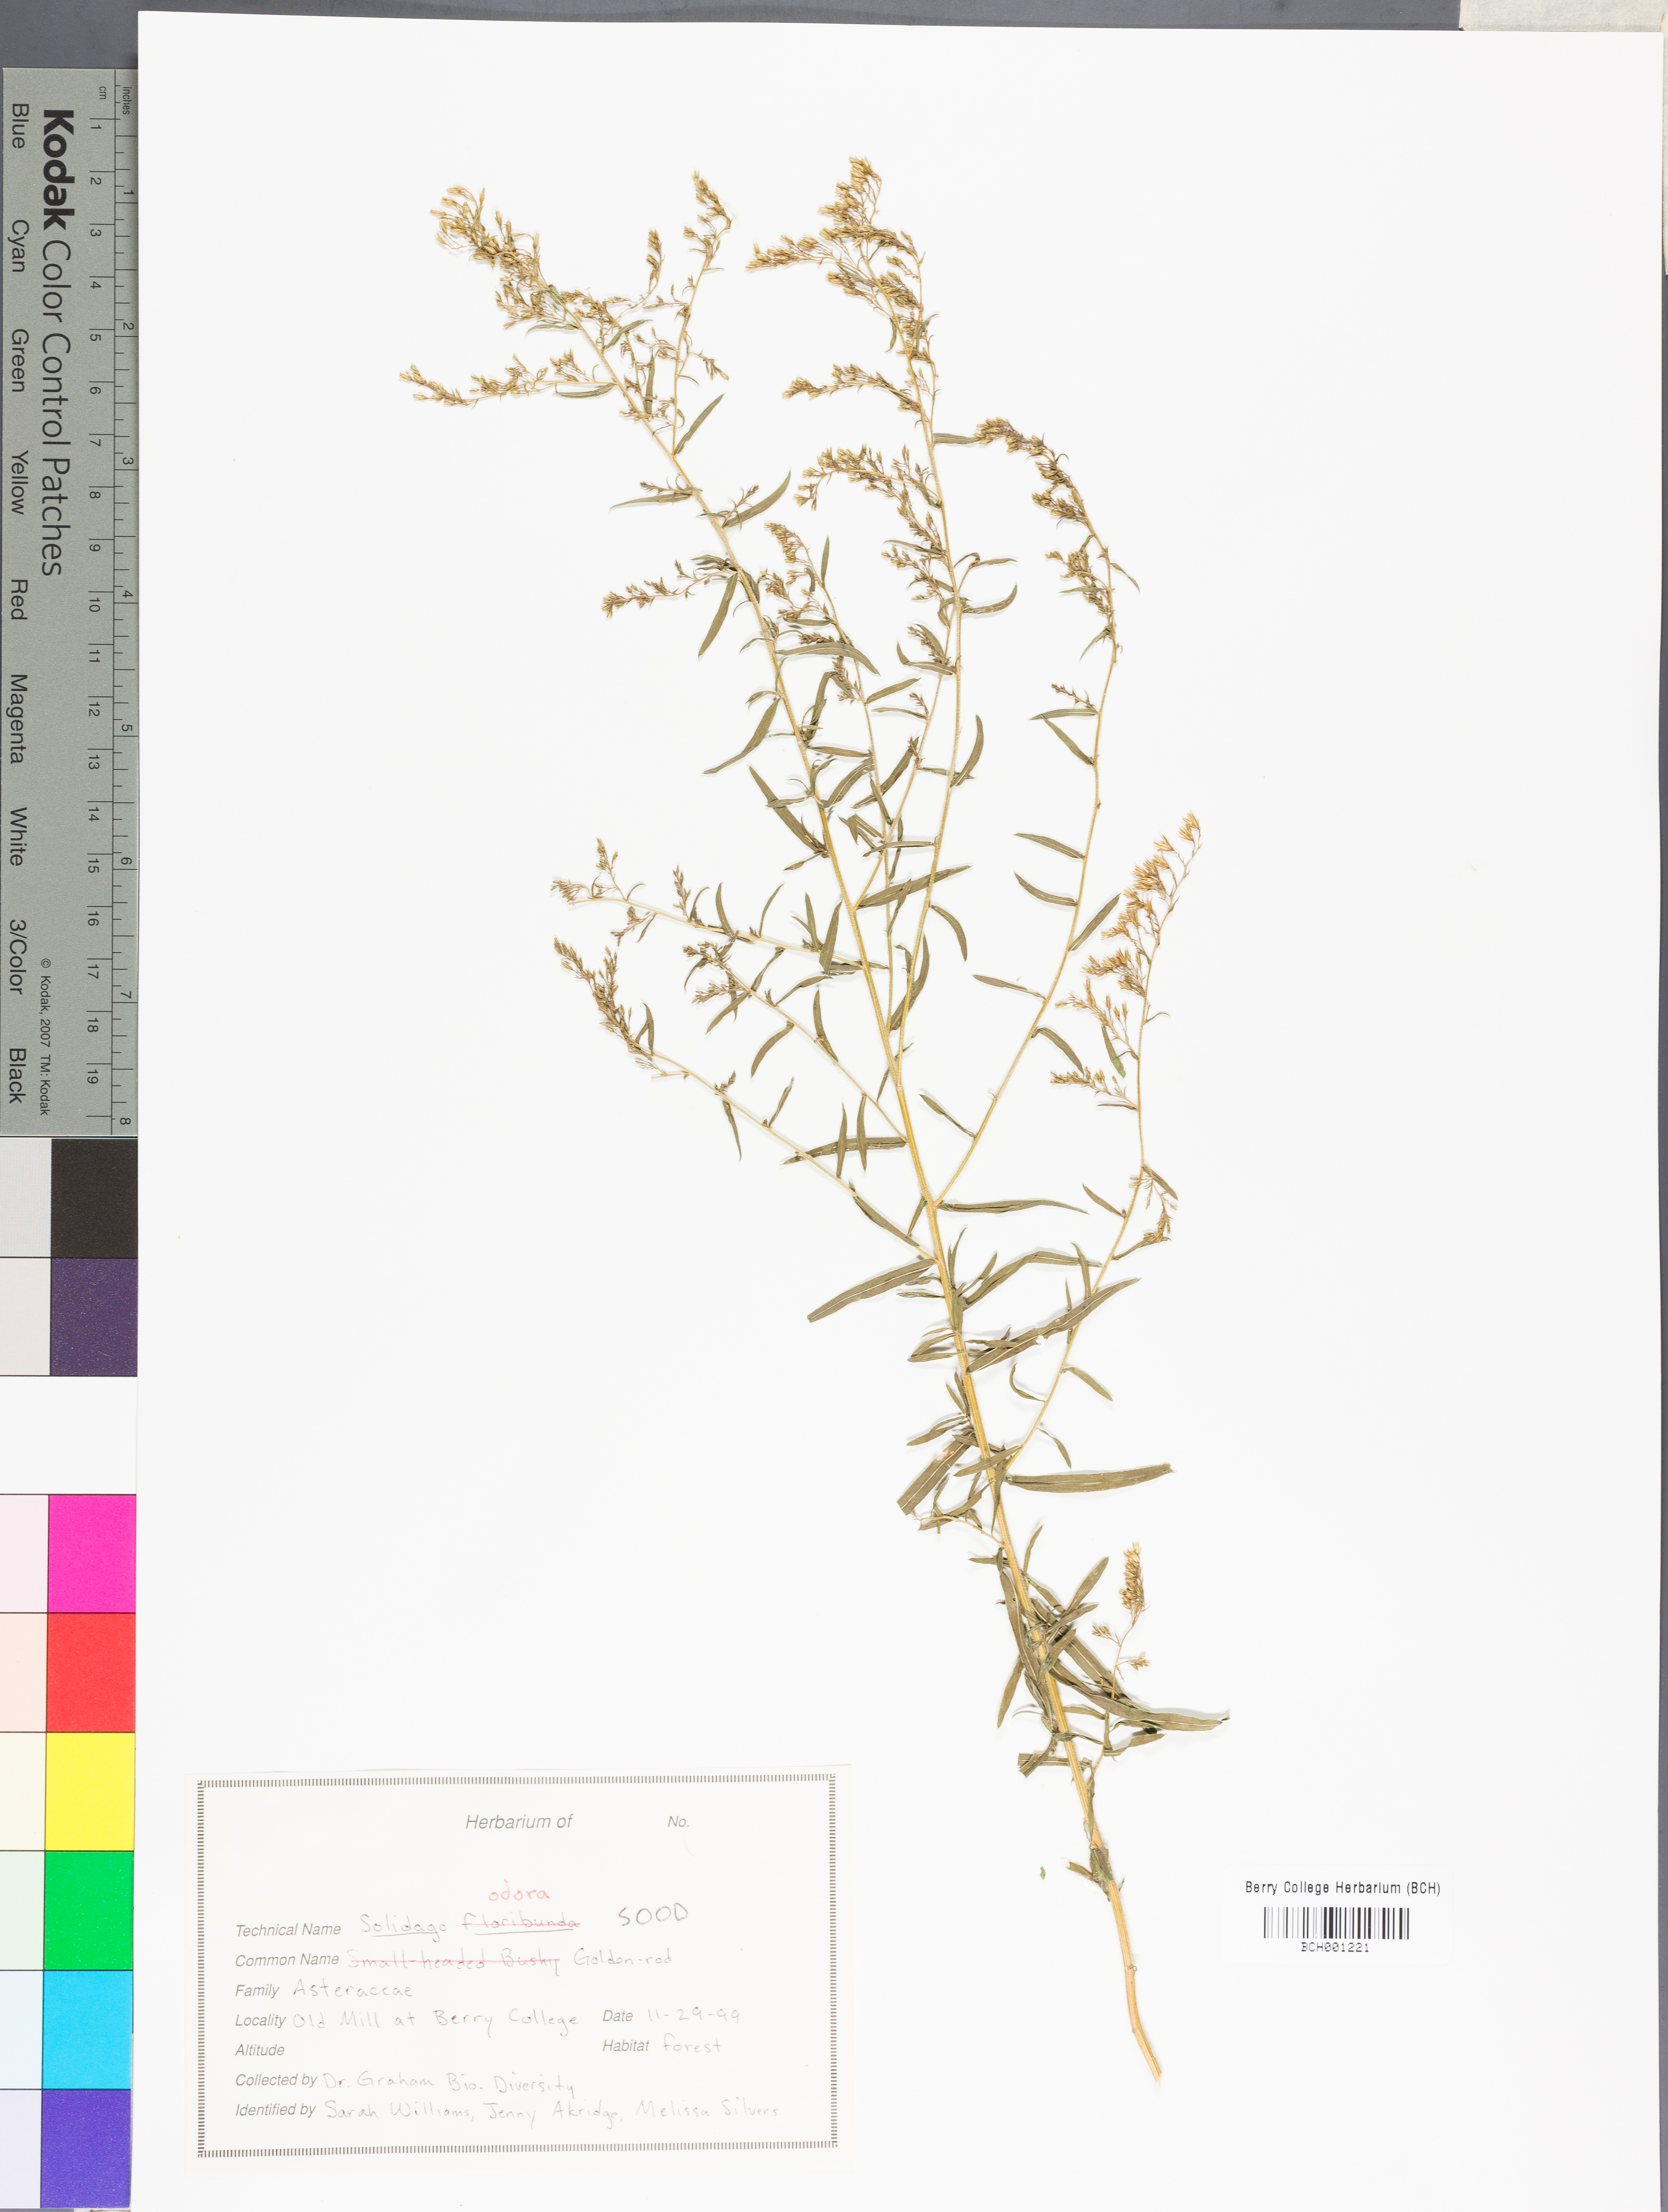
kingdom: Plantae
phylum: Tracheophyta
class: Magnoliopsida
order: Asterales
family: Asteraceae
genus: Solidago
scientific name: Solidago odora
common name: Anise-scented goldenrod
